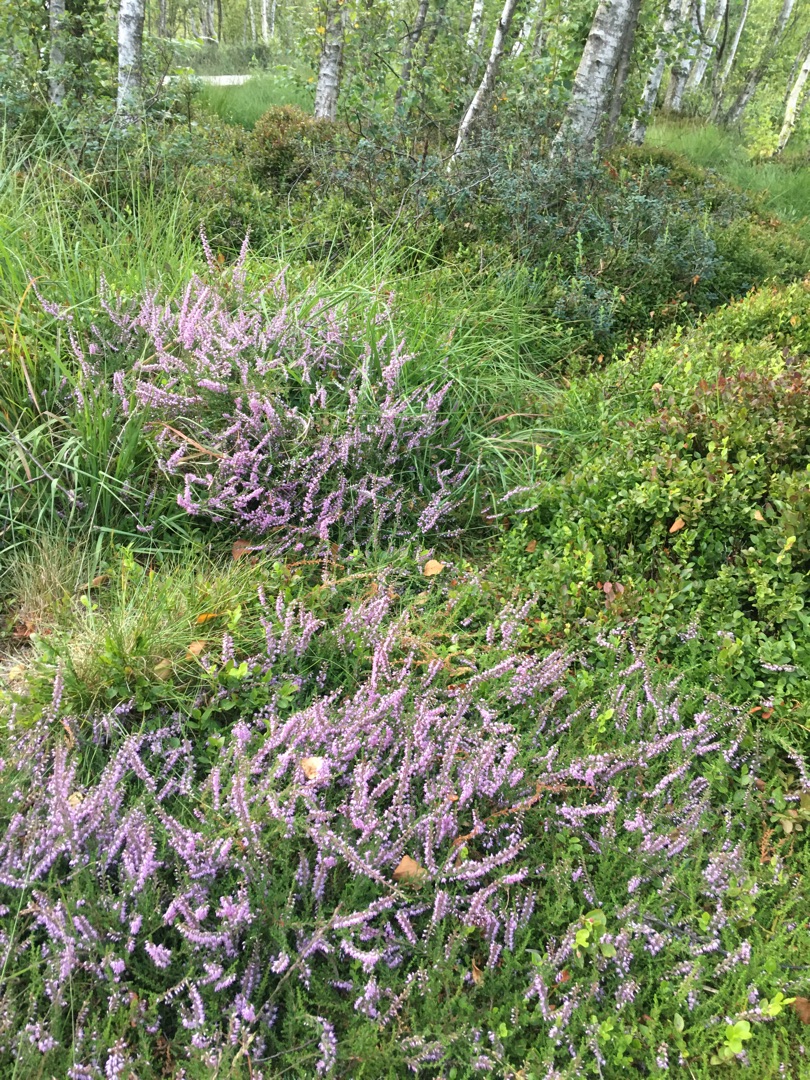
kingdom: Plantae
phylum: Tracheophyta
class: Magnoliopsida
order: Ericales
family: Ericaceae
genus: Calluna
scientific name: Calluna vulgaris
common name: Hedelyng
